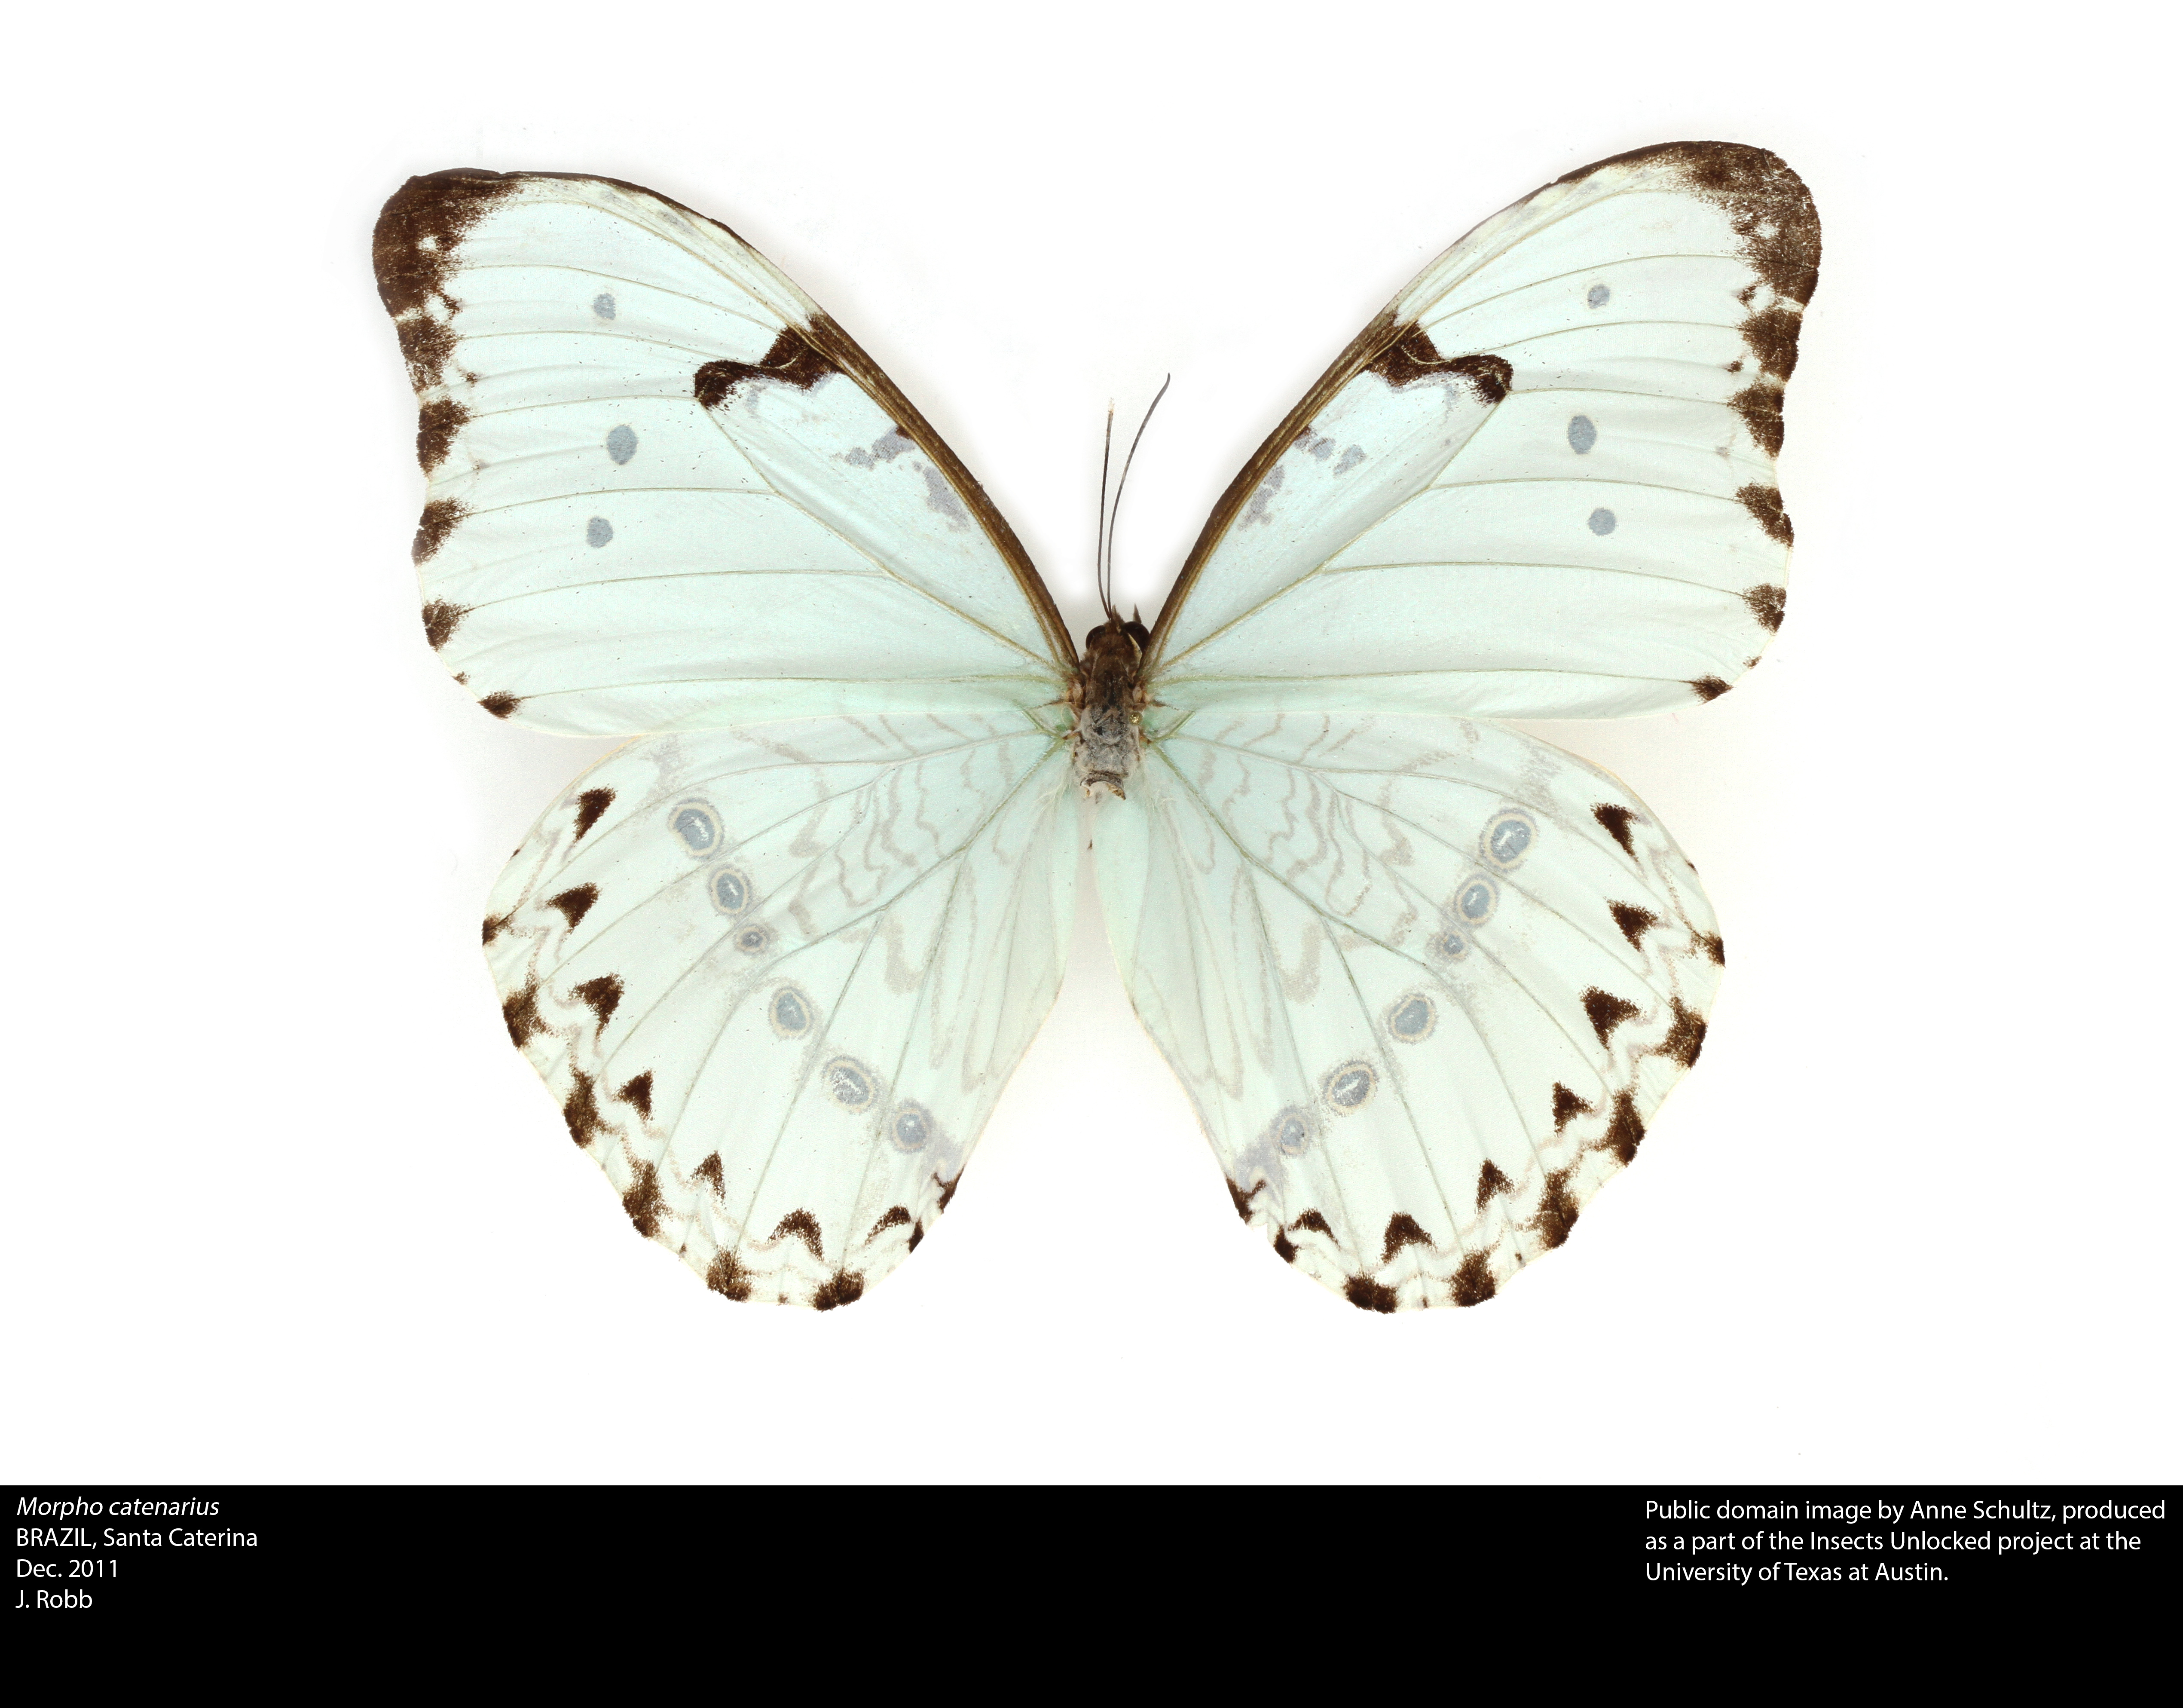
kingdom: Animalia
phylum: Arthropoda
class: Insecta
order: Lepidoptera
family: Nymphalidae
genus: Morpho
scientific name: Morpho catenarius
